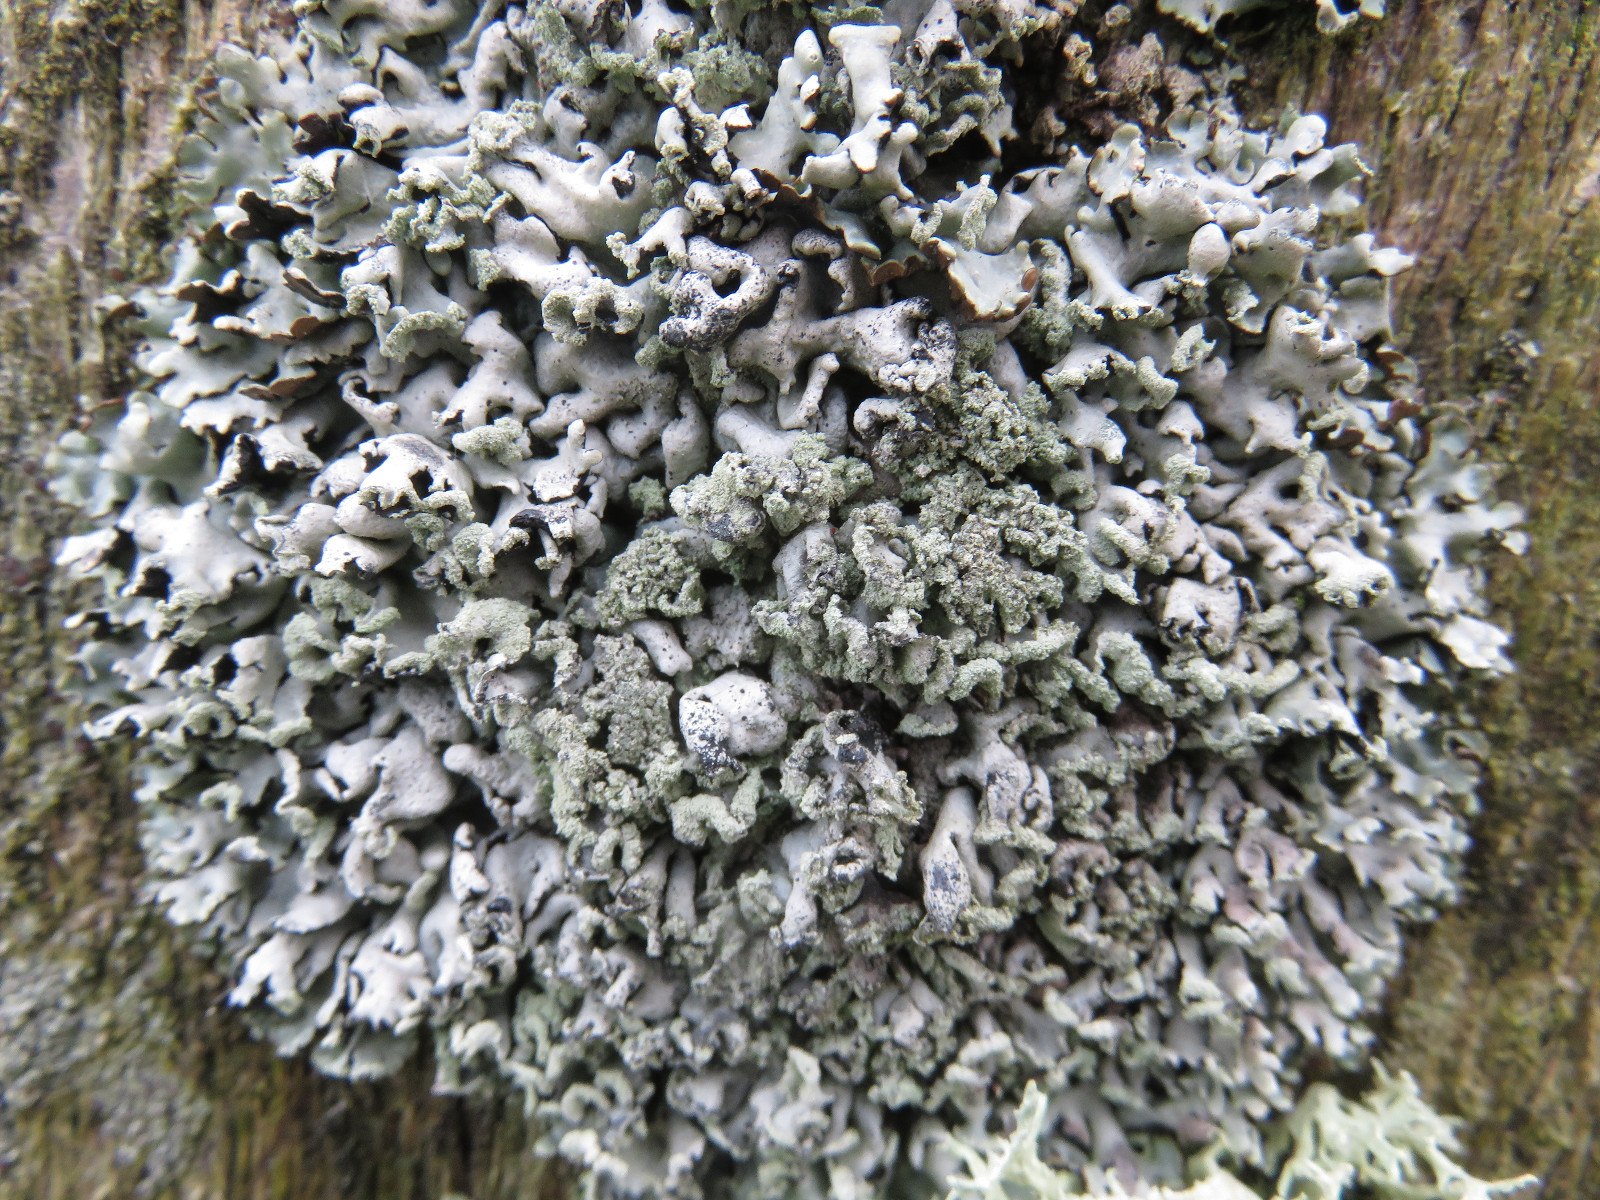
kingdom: Fungi
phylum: Ascomycota
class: Lecanoromycetes
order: Lecanorales
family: Parmeliaceae
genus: Hypogymnia
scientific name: Hypogymnia physodes
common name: almindelig kvistlav
